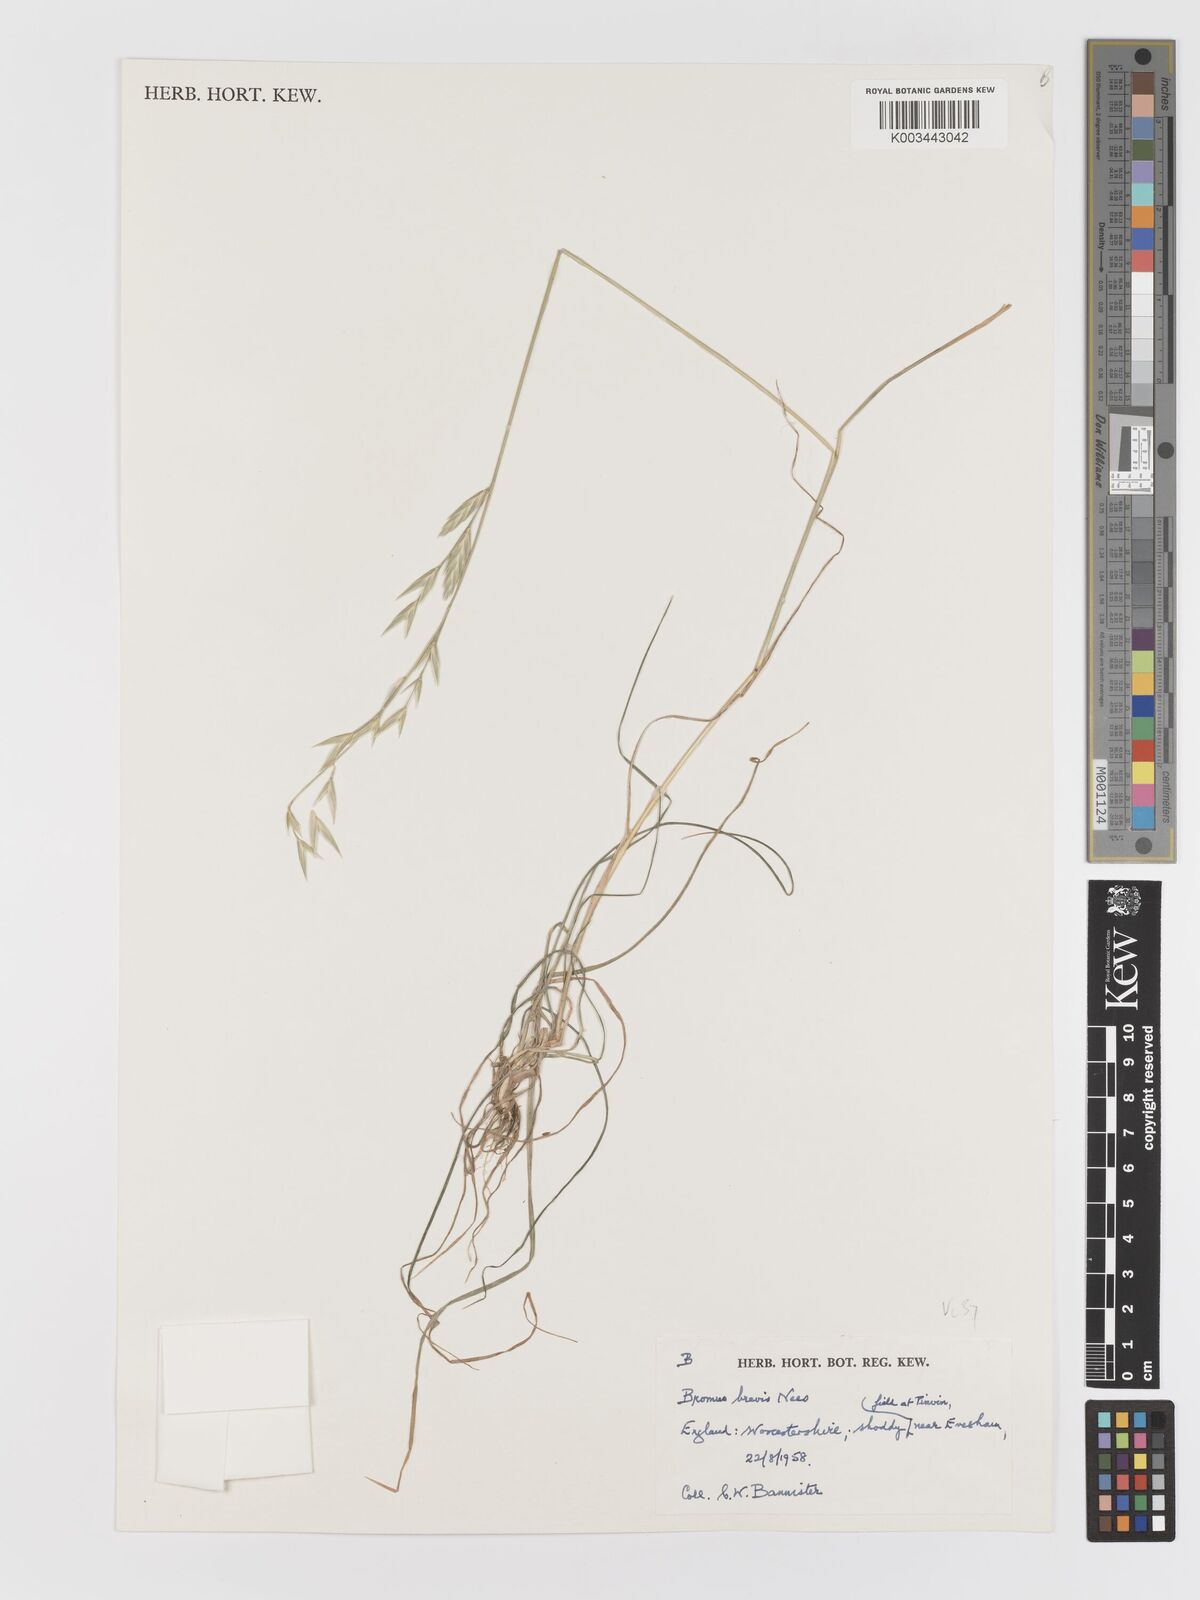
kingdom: Plantae
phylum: Tracheophyta
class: Liliopsida
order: Poales
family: Poaceae
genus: Bromus
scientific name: Bromus catharticus
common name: Rescuegrass
